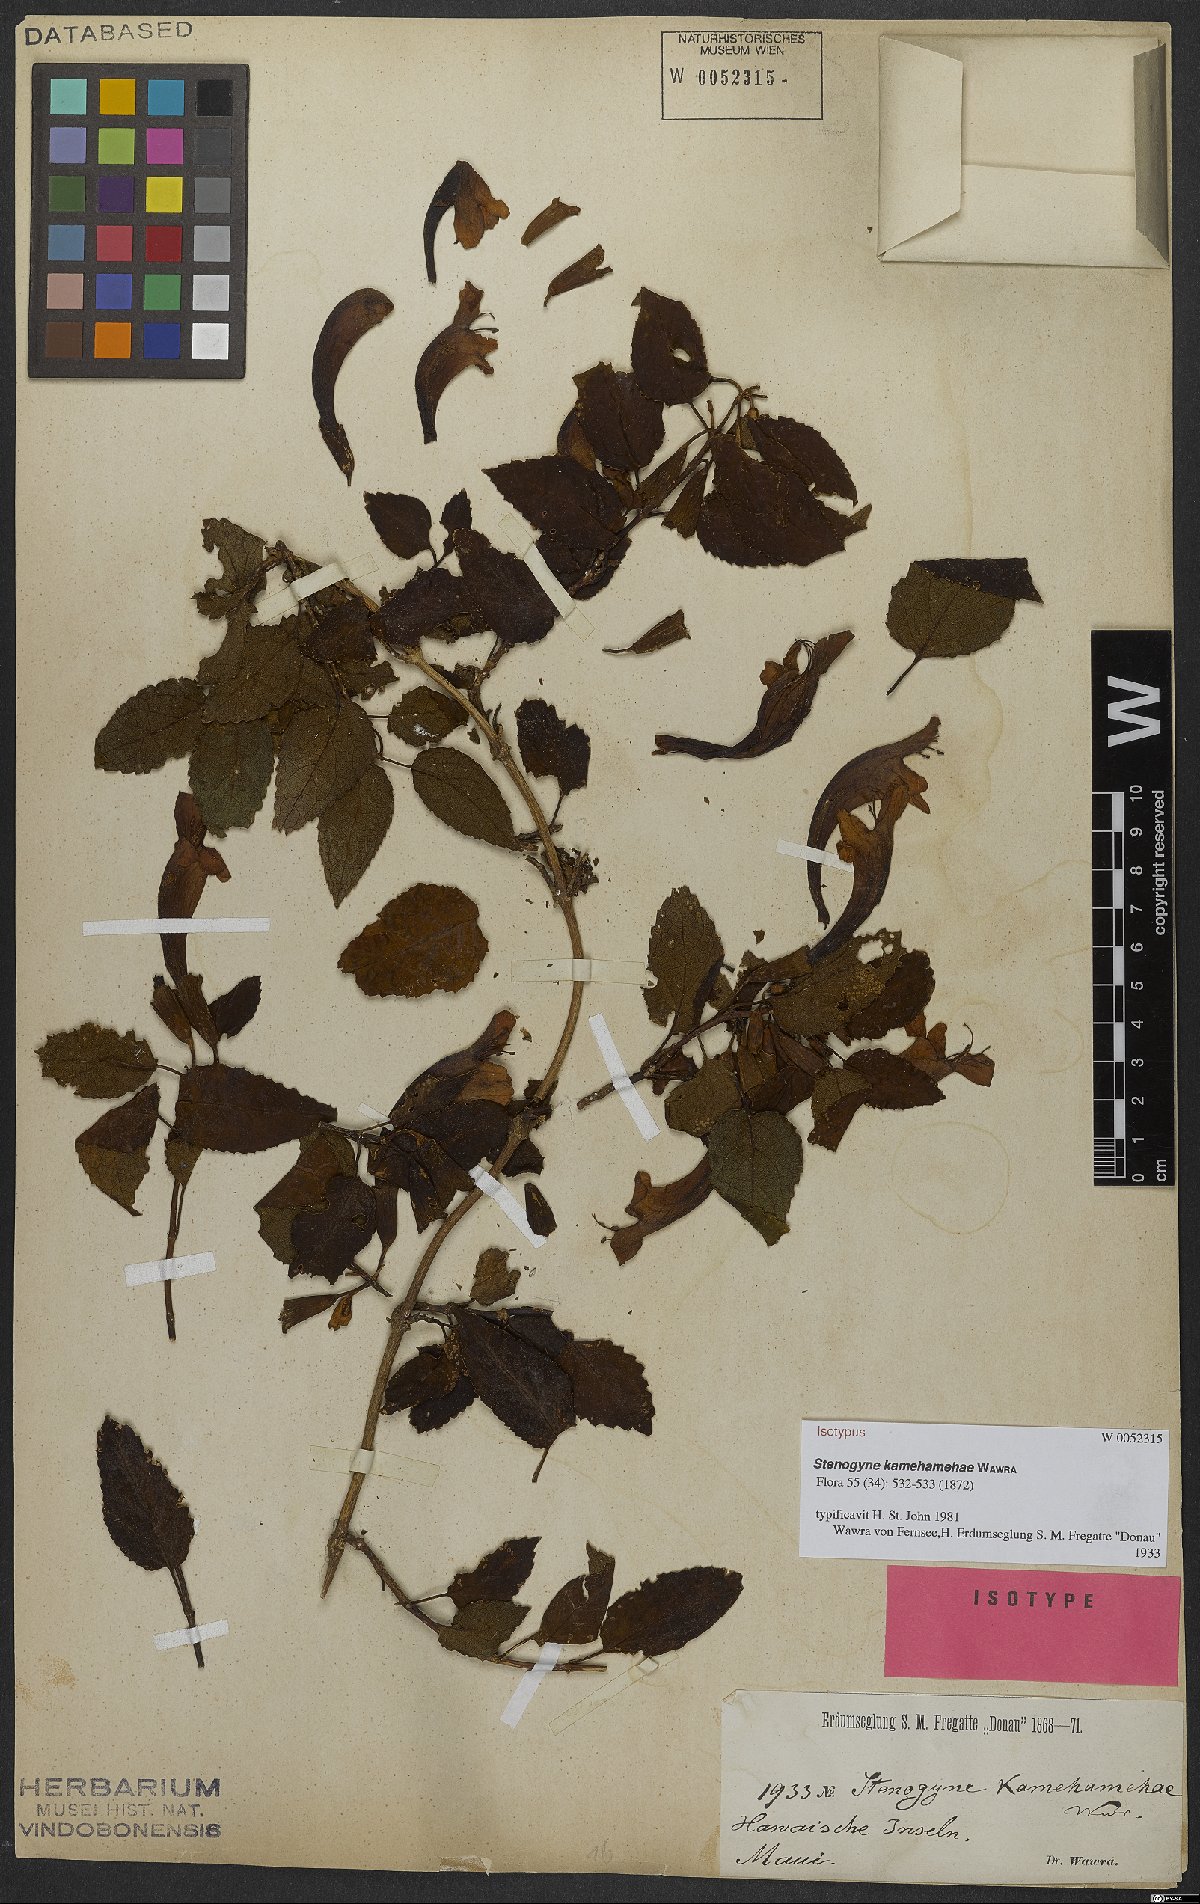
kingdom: Plantae
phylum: Tracheophyta
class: Magnoliopsida
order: Lamiales
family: Lamiaceae
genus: Stenogyne
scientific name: Stenogyne kamehamehae
